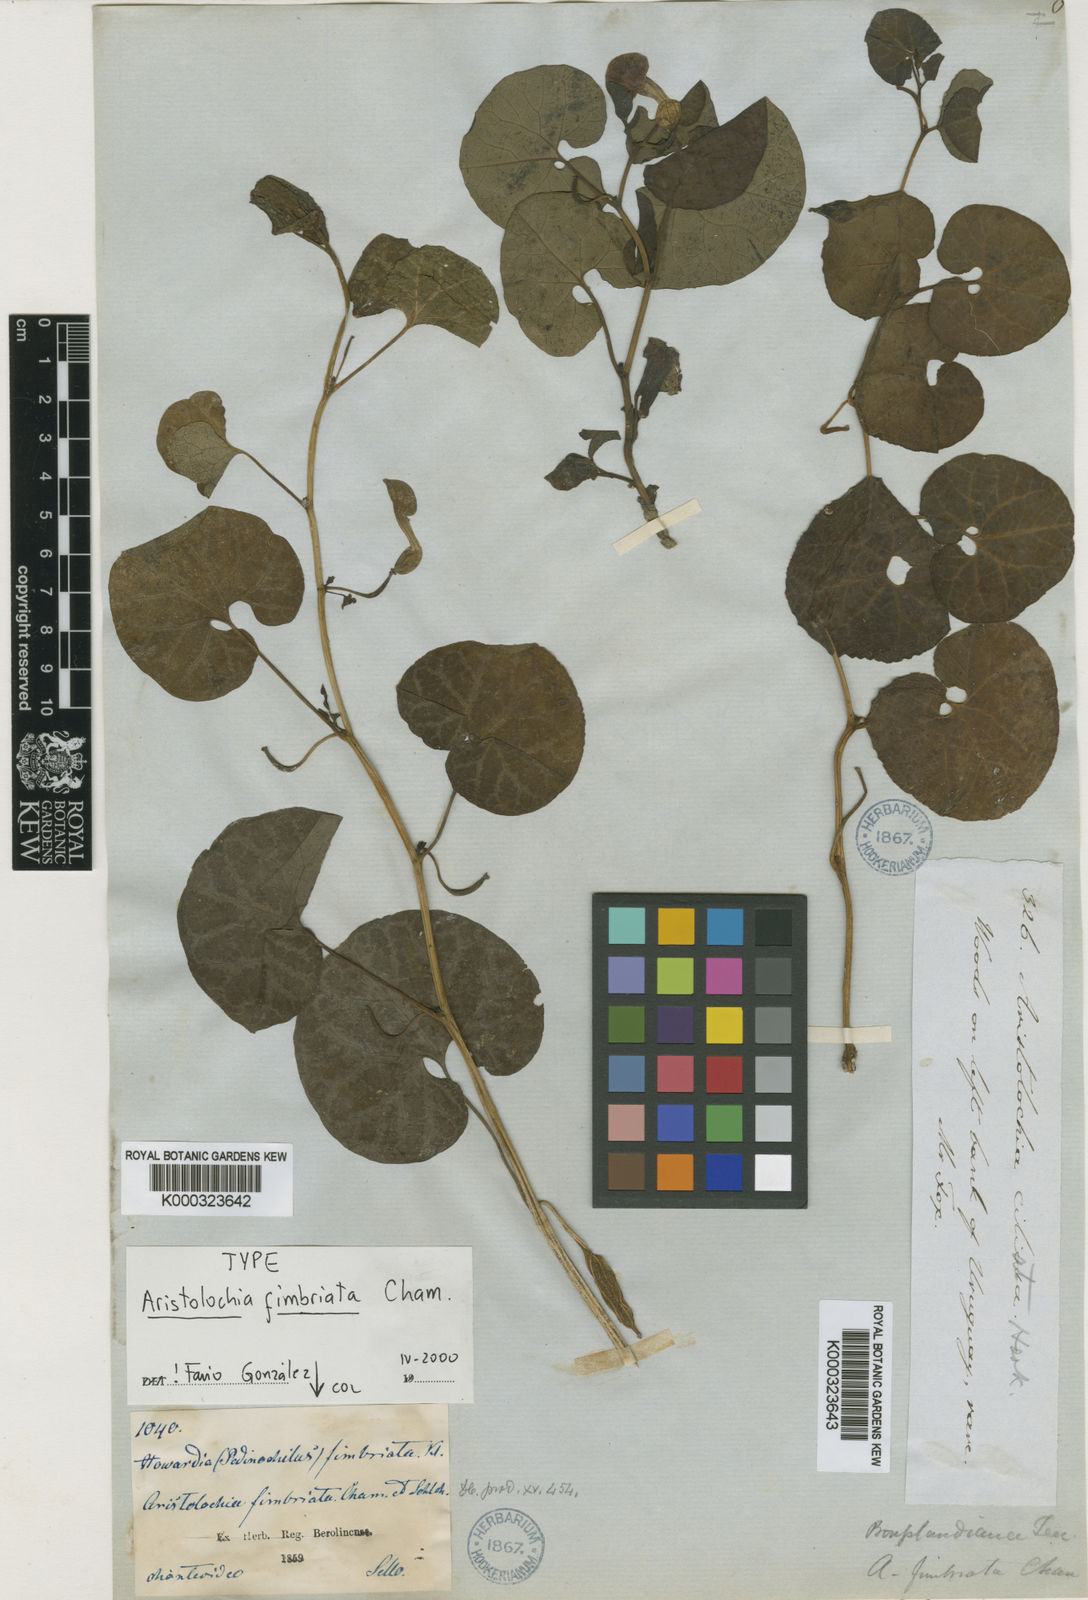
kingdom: Plantae
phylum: Tracheophyta
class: Magnoliopsida
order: Piperales
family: Aristolochiaceae
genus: Aristolochia
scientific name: Aristolochia fimbriata
